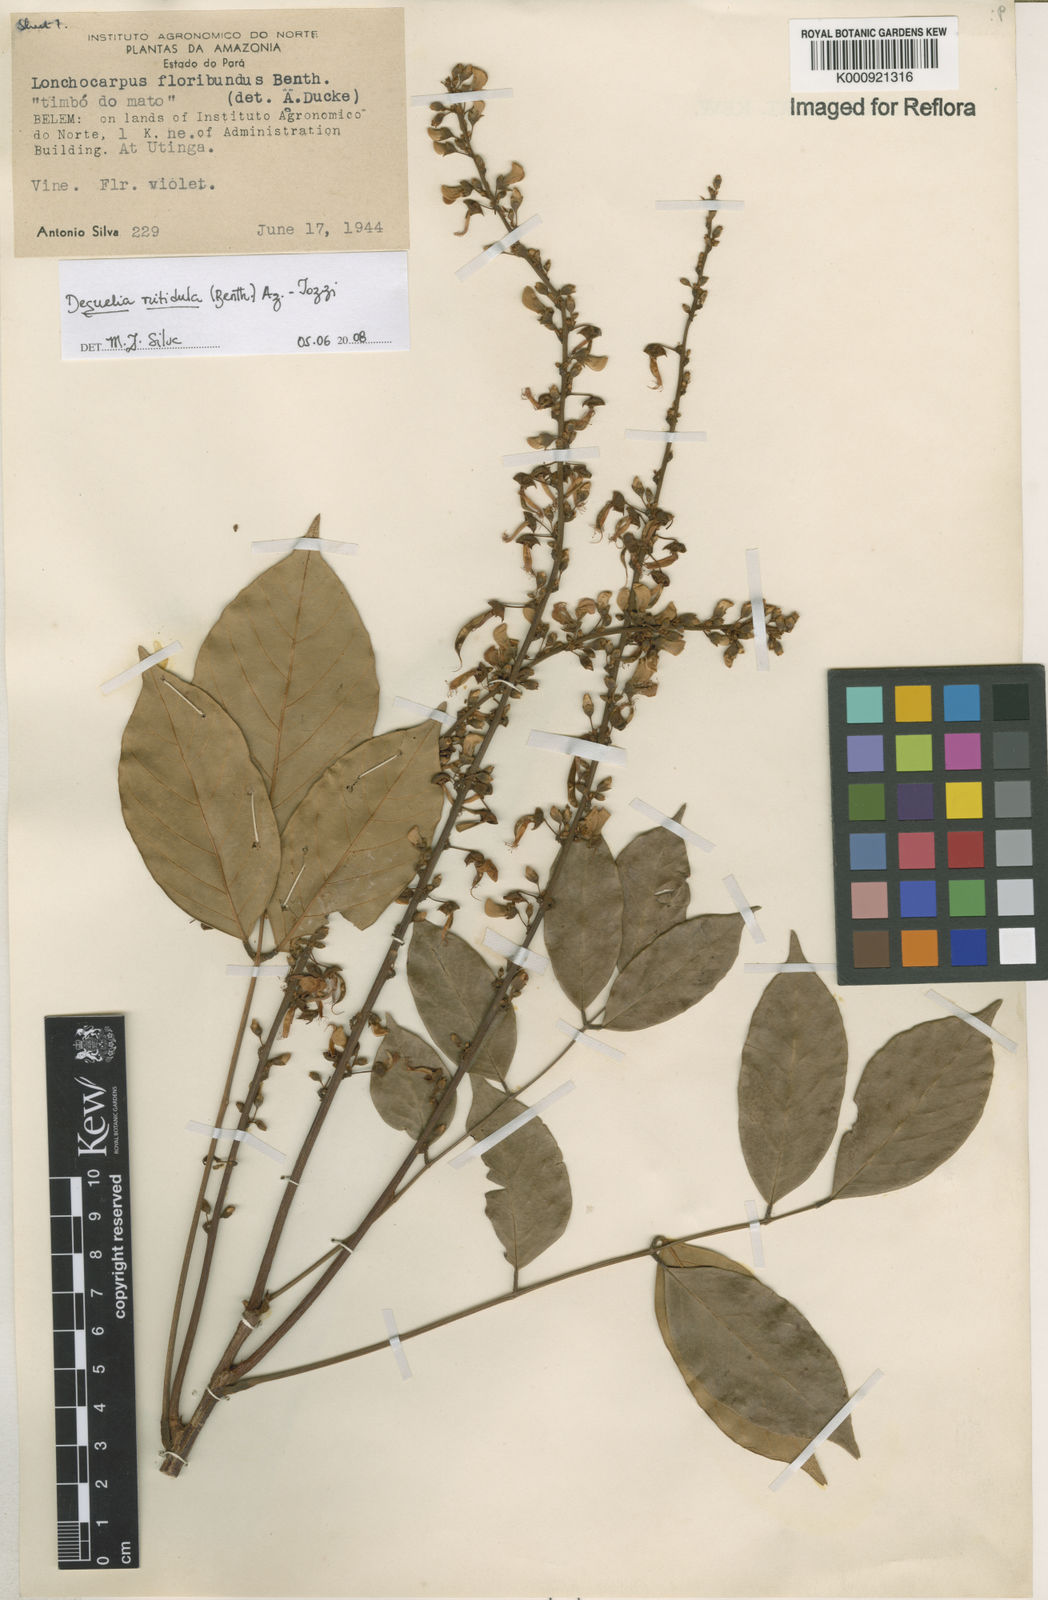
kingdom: Plantae
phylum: Tracheophyta
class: Magnoliopsida
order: Fabales
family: Fabaceae
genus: Deguelia
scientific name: Deguelia nitidula
